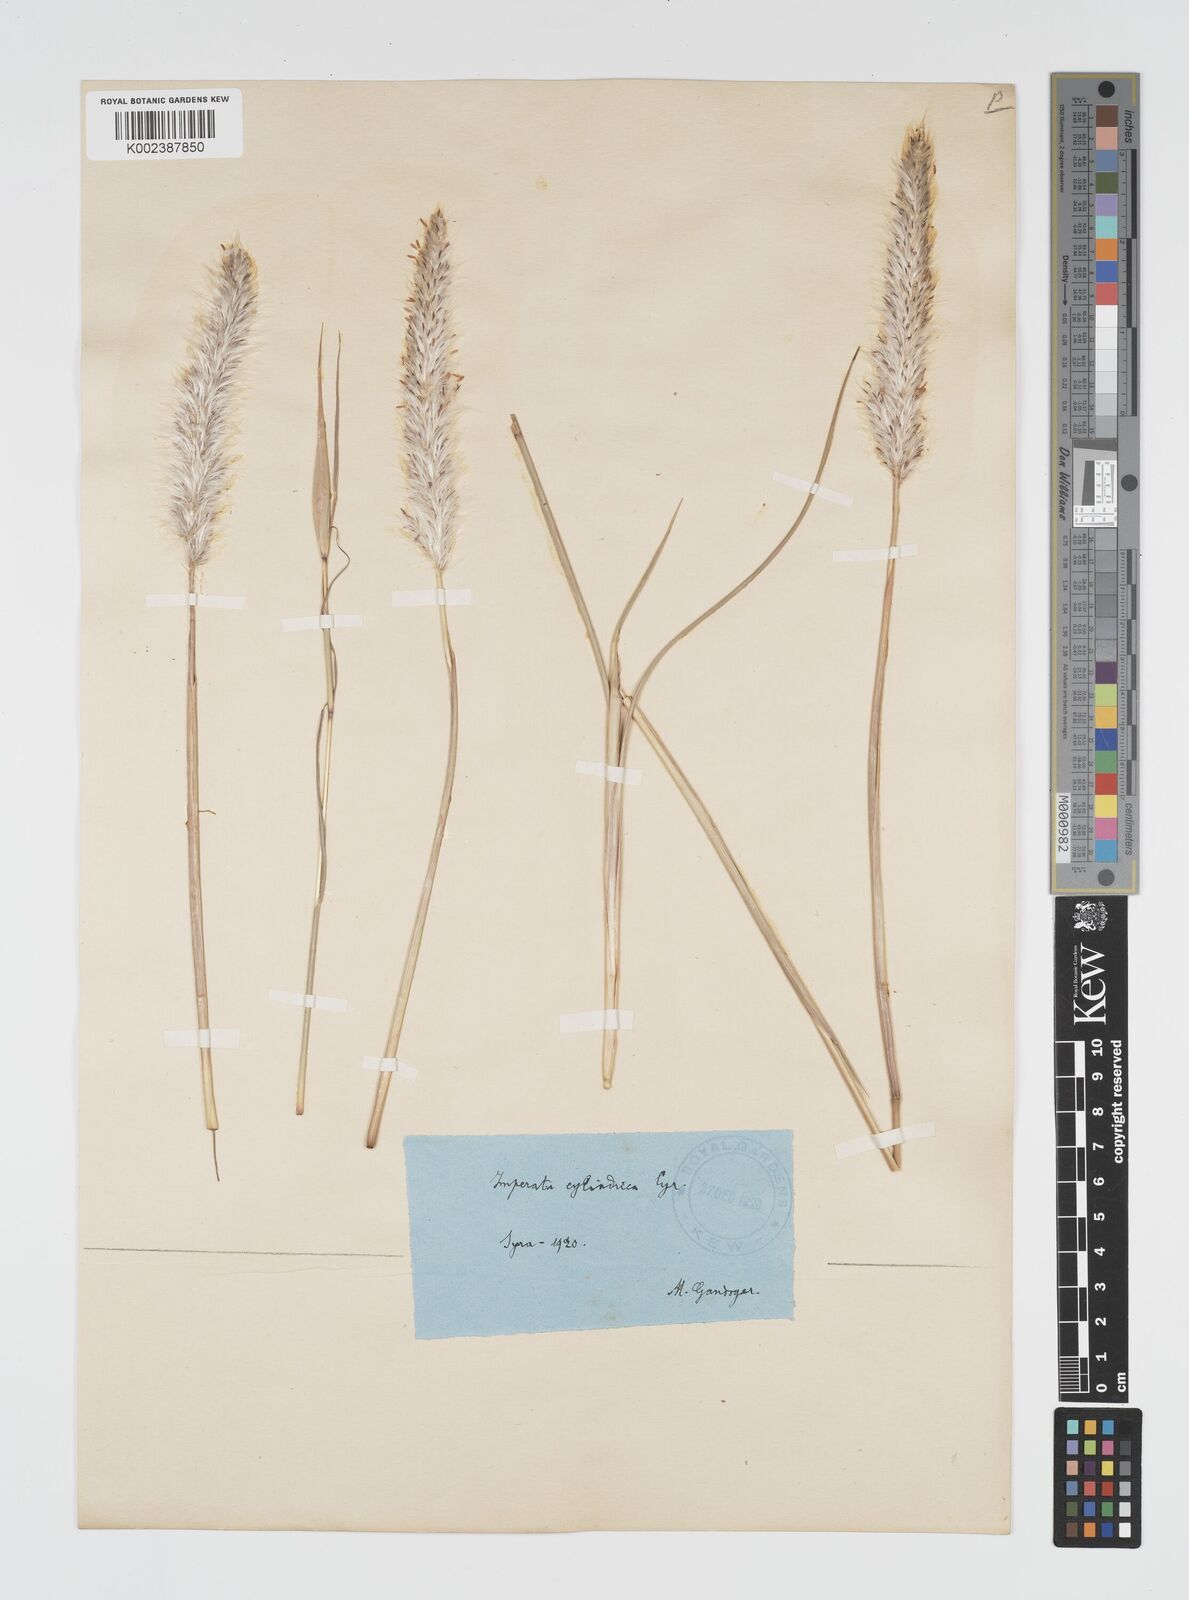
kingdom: Plantae
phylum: Tracheophyta
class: Liliopsida
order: Poales
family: Poaceae
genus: Imperata
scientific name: Imperata cylindrica
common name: Cogongrass
